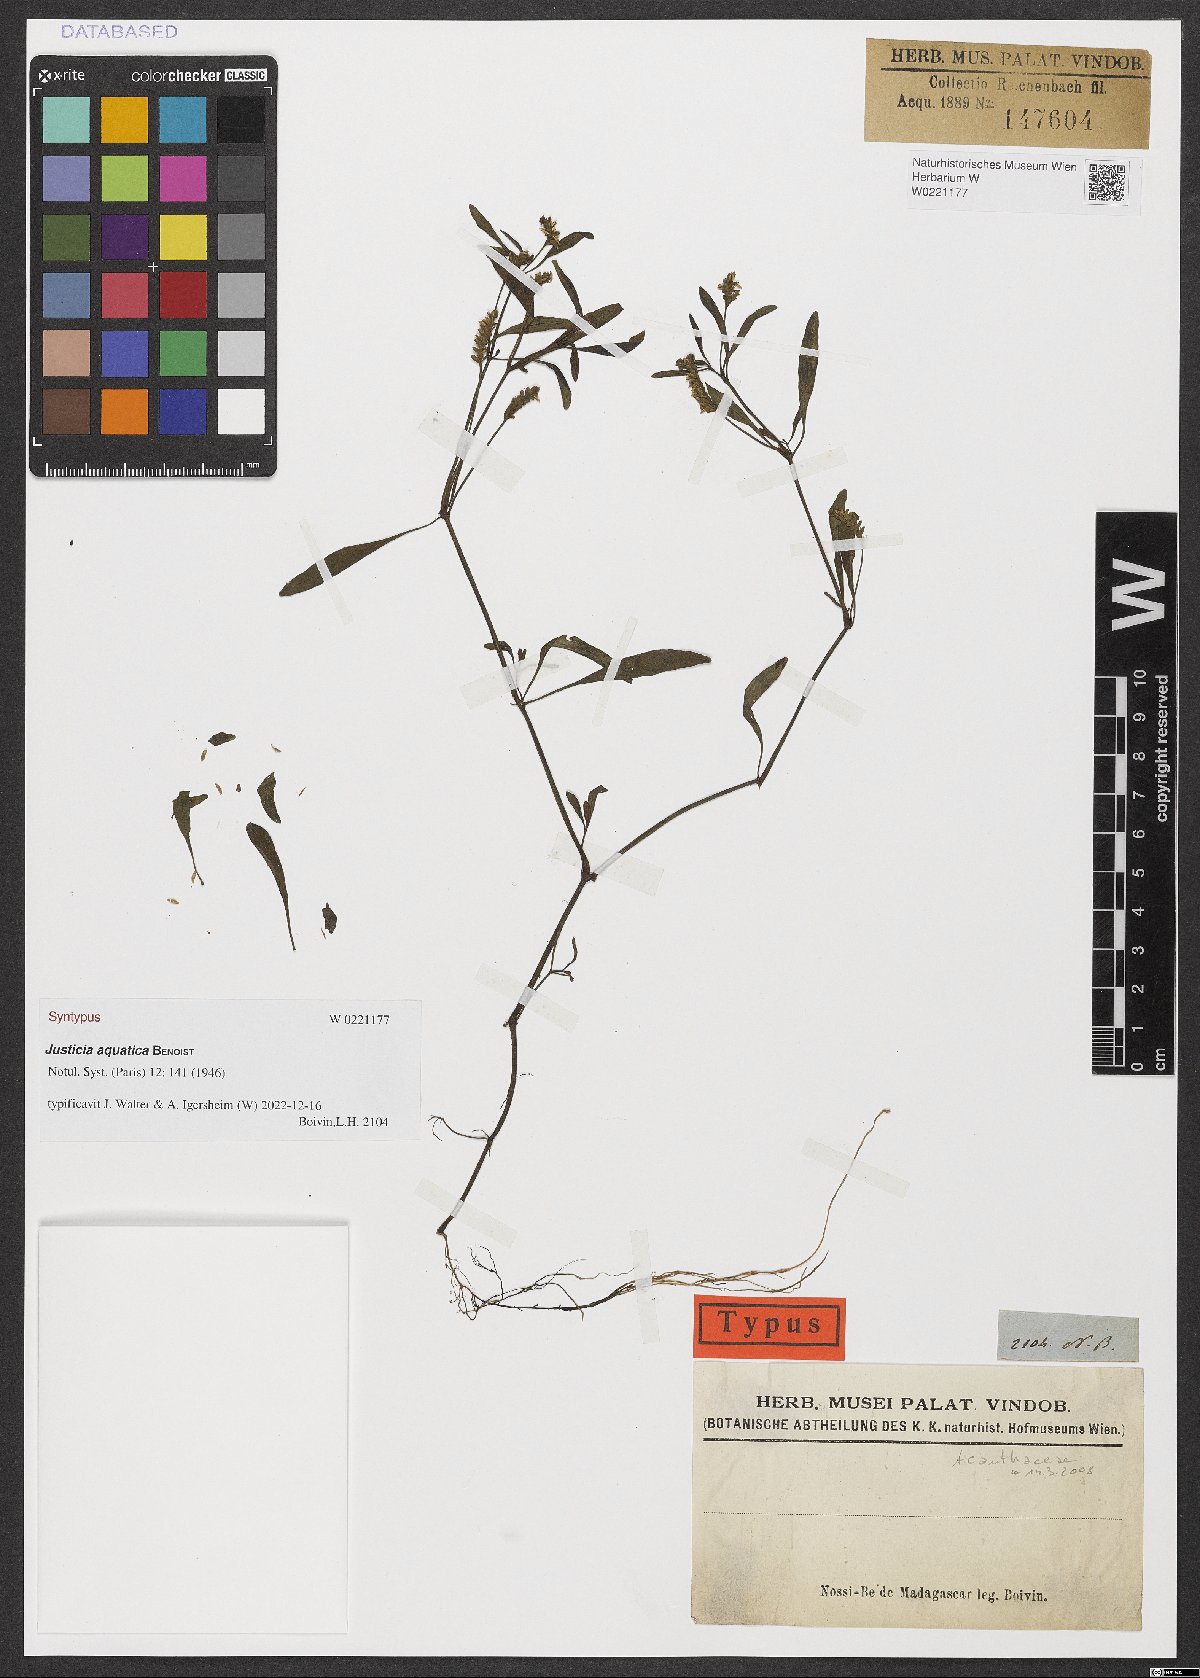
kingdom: Plantae
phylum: Tracheophyta
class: Magnoliopsida
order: Lamiales
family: Acanthaceae
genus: Justicia
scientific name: Justicia aquatica
